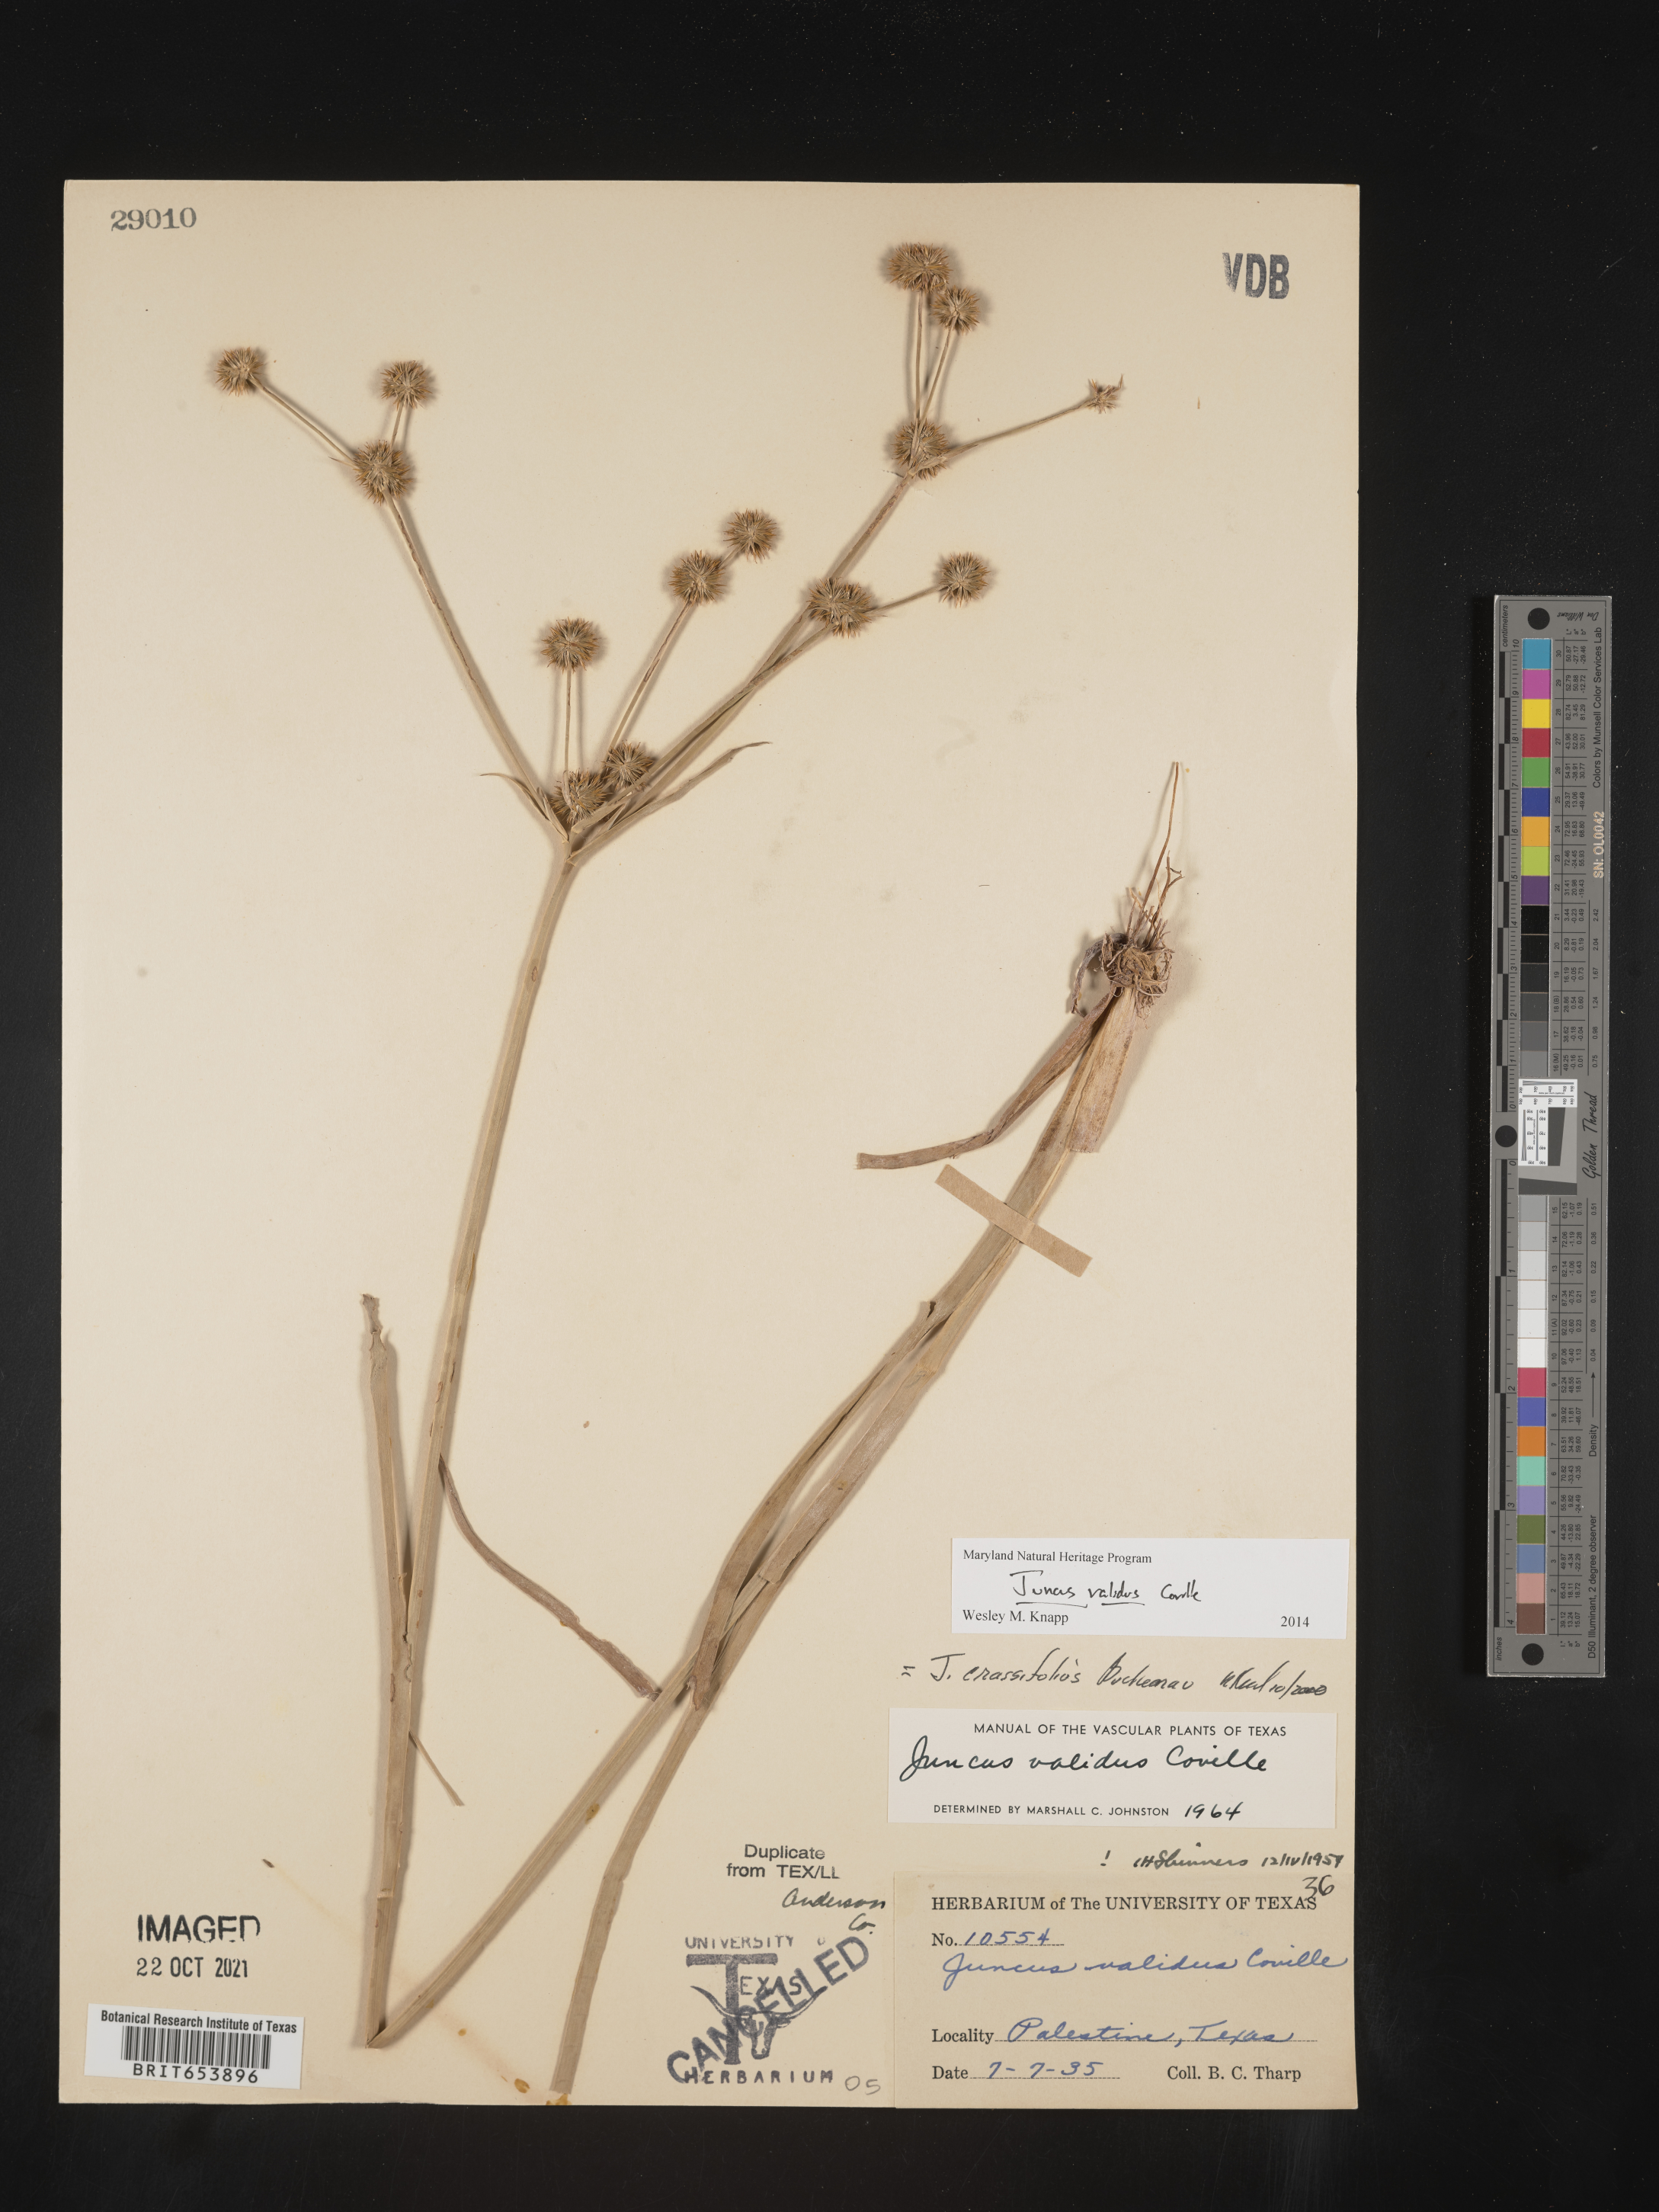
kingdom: Plantae
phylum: Tracheophyta
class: Liliopsida
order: Poales
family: Juncaceae
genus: Juncus
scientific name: Juncus validus
